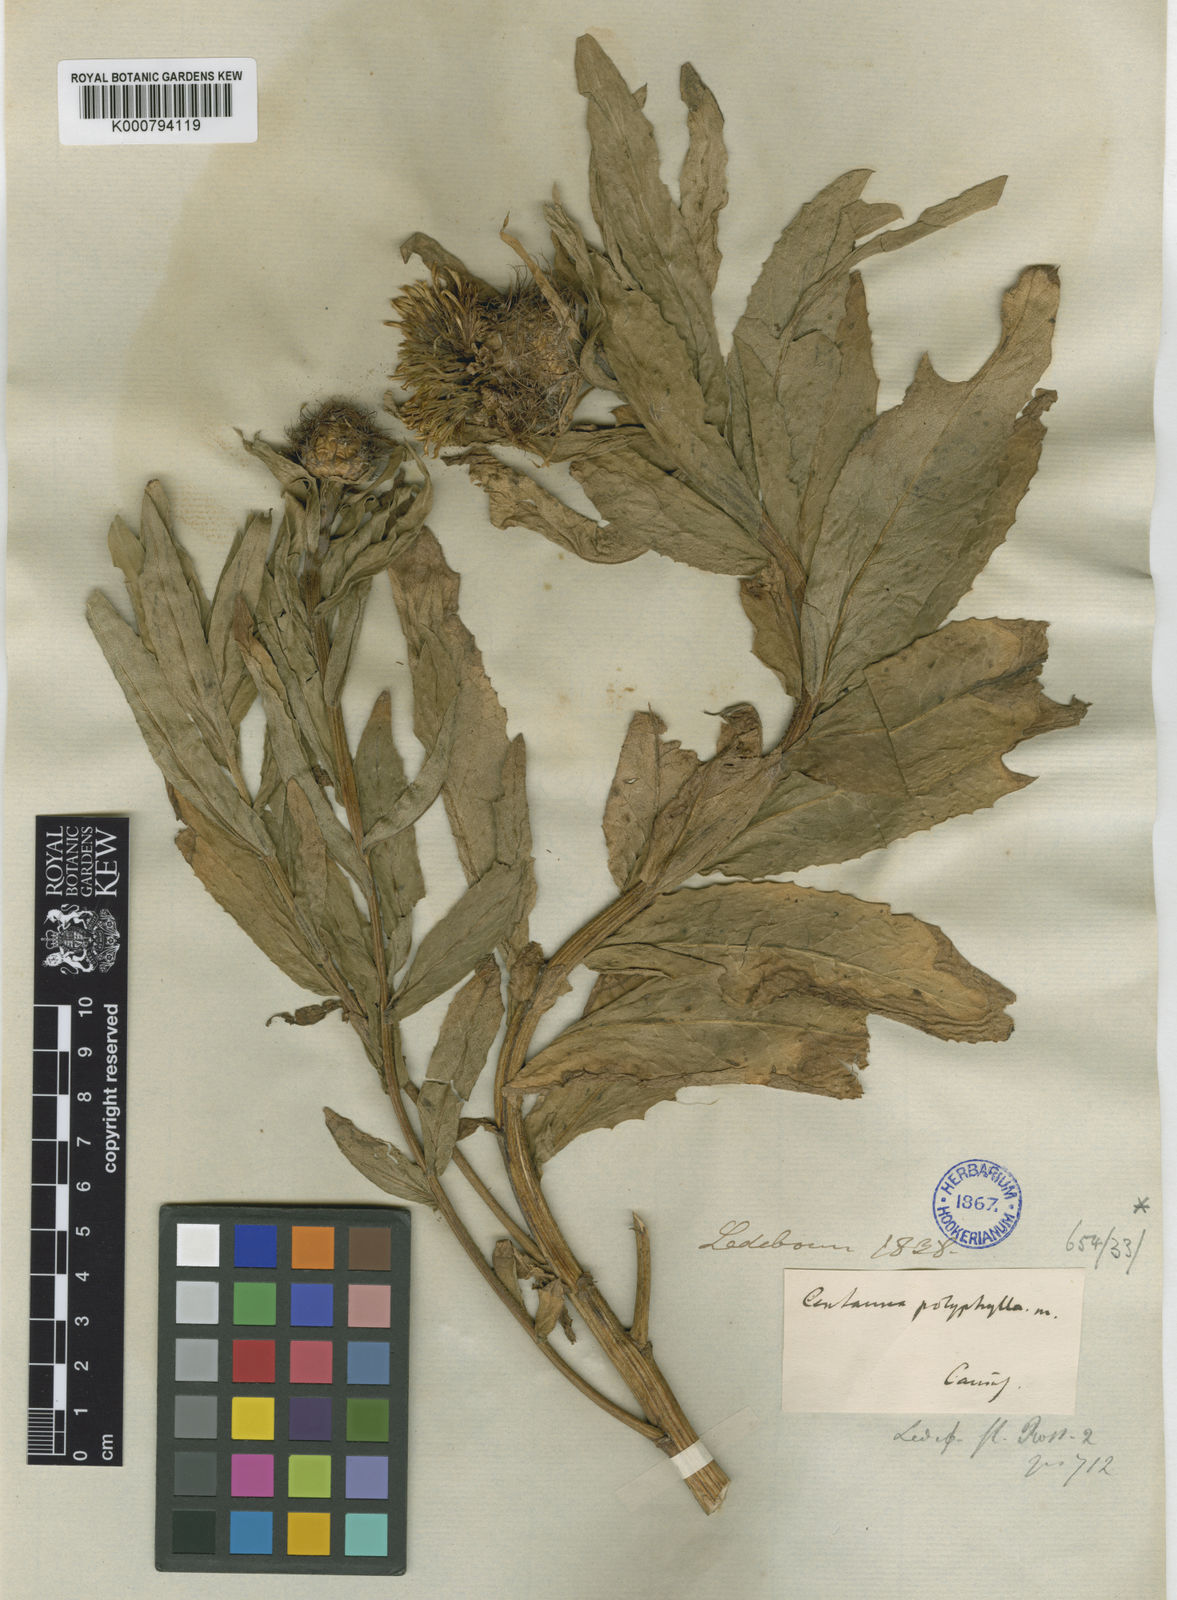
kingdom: Plantae
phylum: Tracheophyta
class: Magnoliopsida
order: Asterales
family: Asteraceae
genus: Centaurea
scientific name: Centaurea polyphylla
